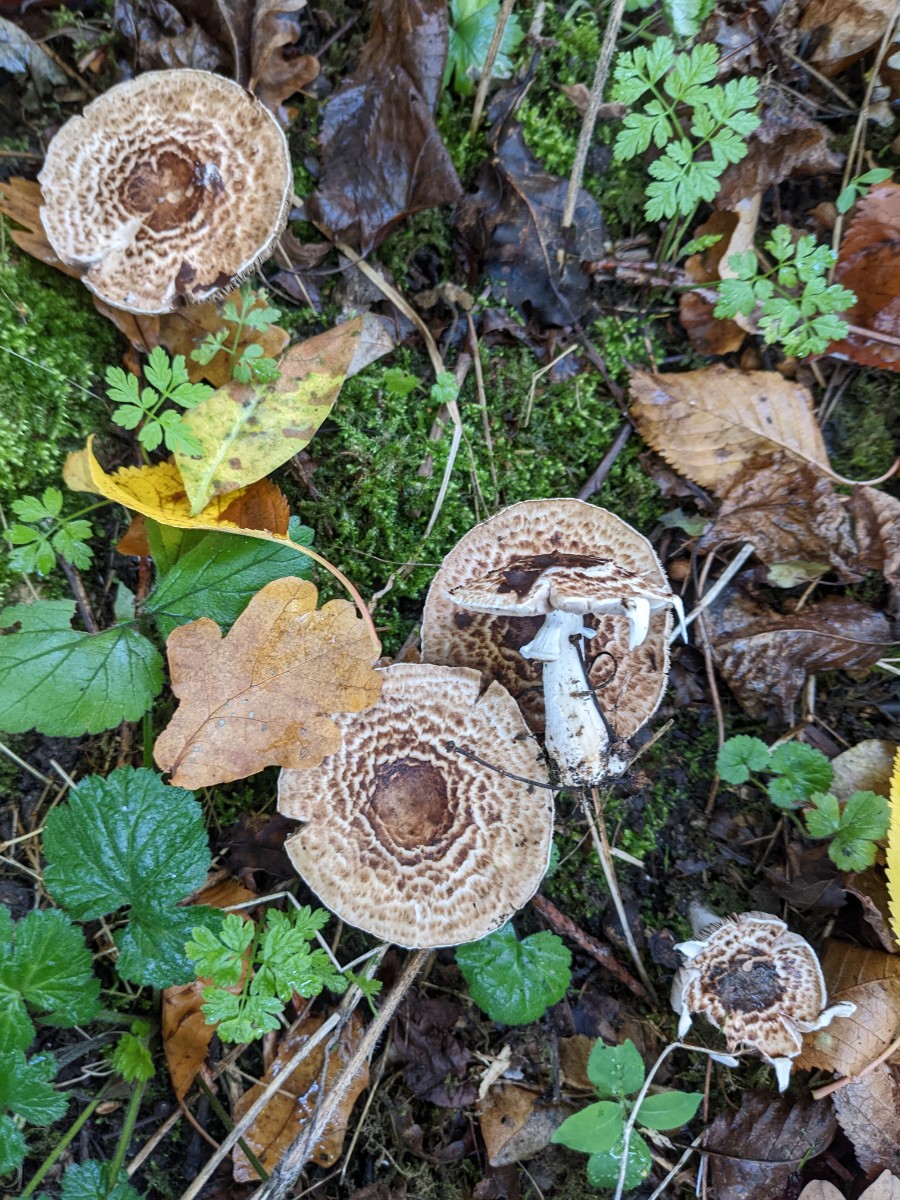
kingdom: Fungi
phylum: Basidiomycota
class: Agaricomycetes
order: Agaricales
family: Agaricaceae
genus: Agaricus
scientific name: Agaricus impudicus
